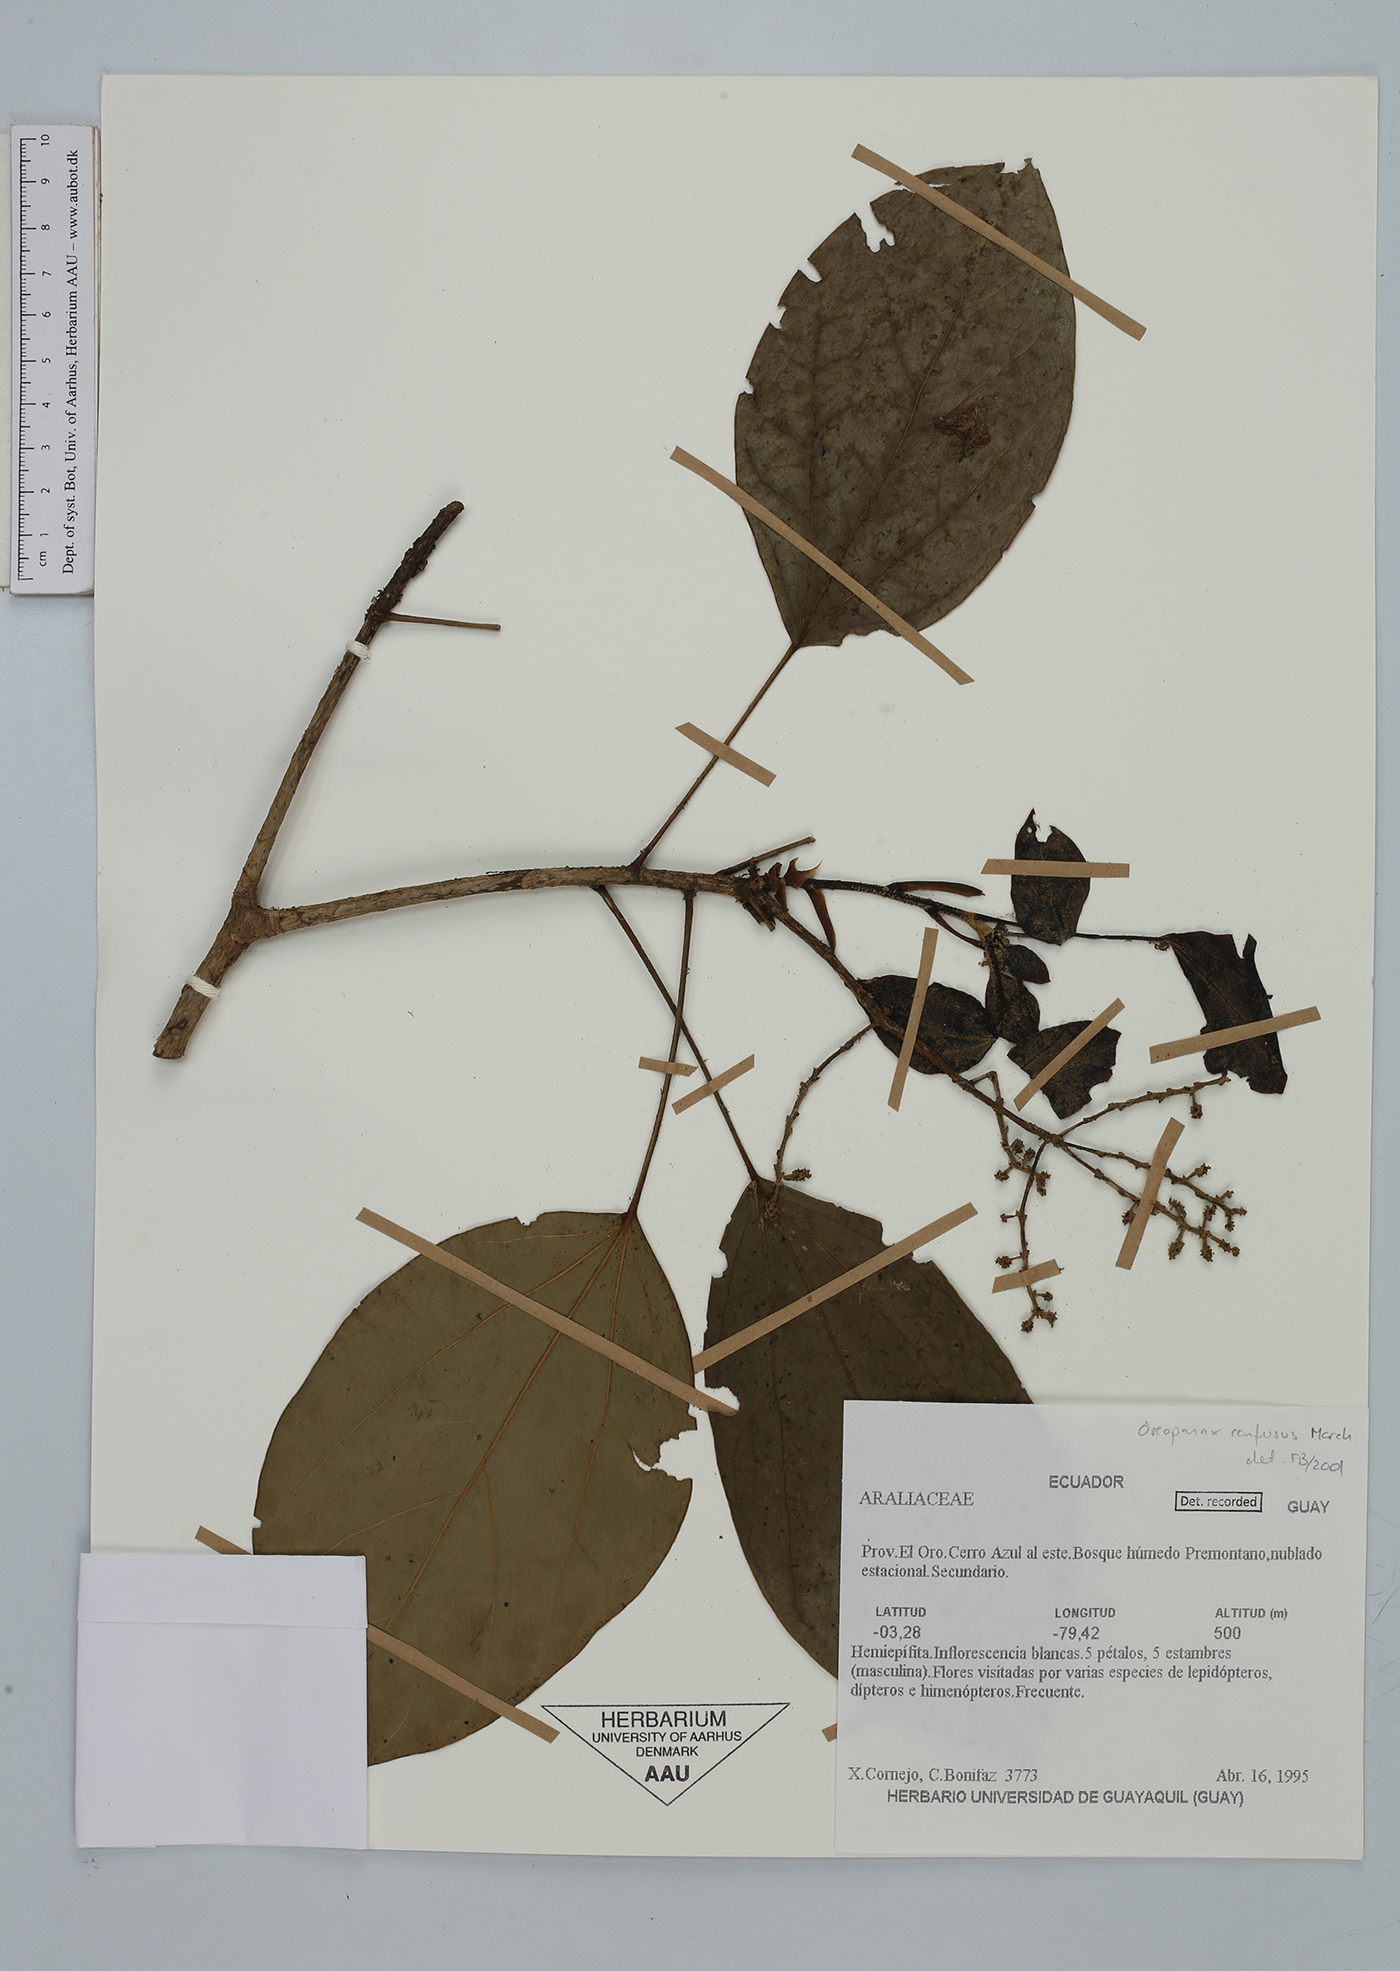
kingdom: Plantae
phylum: Tracheophyta
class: Magnoliopsida
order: Apiales
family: Araliaceae
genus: Oreopanax
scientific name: Oreopanax confusus
